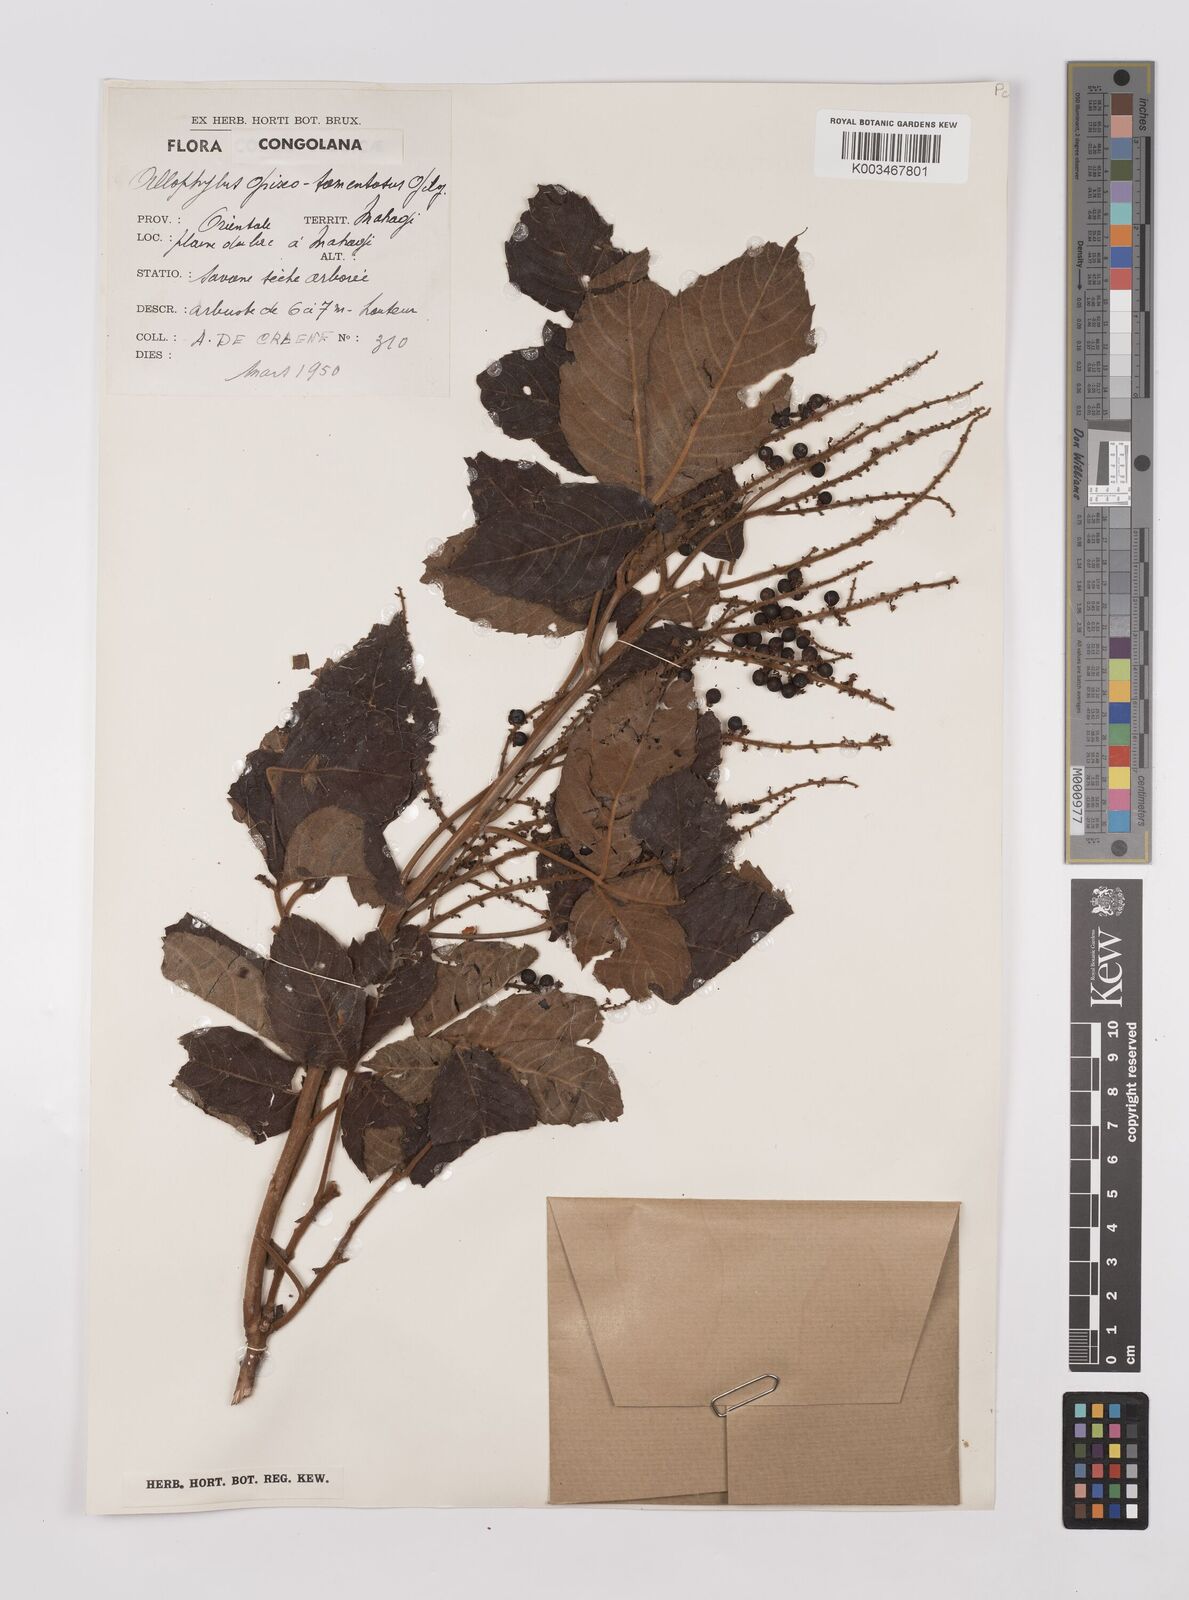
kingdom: Plantae
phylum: Tracheophyta
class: Magnoliopsida
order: Sapindales
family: Sapindaceae
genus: Allophylus
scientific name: Allophylus africanus
